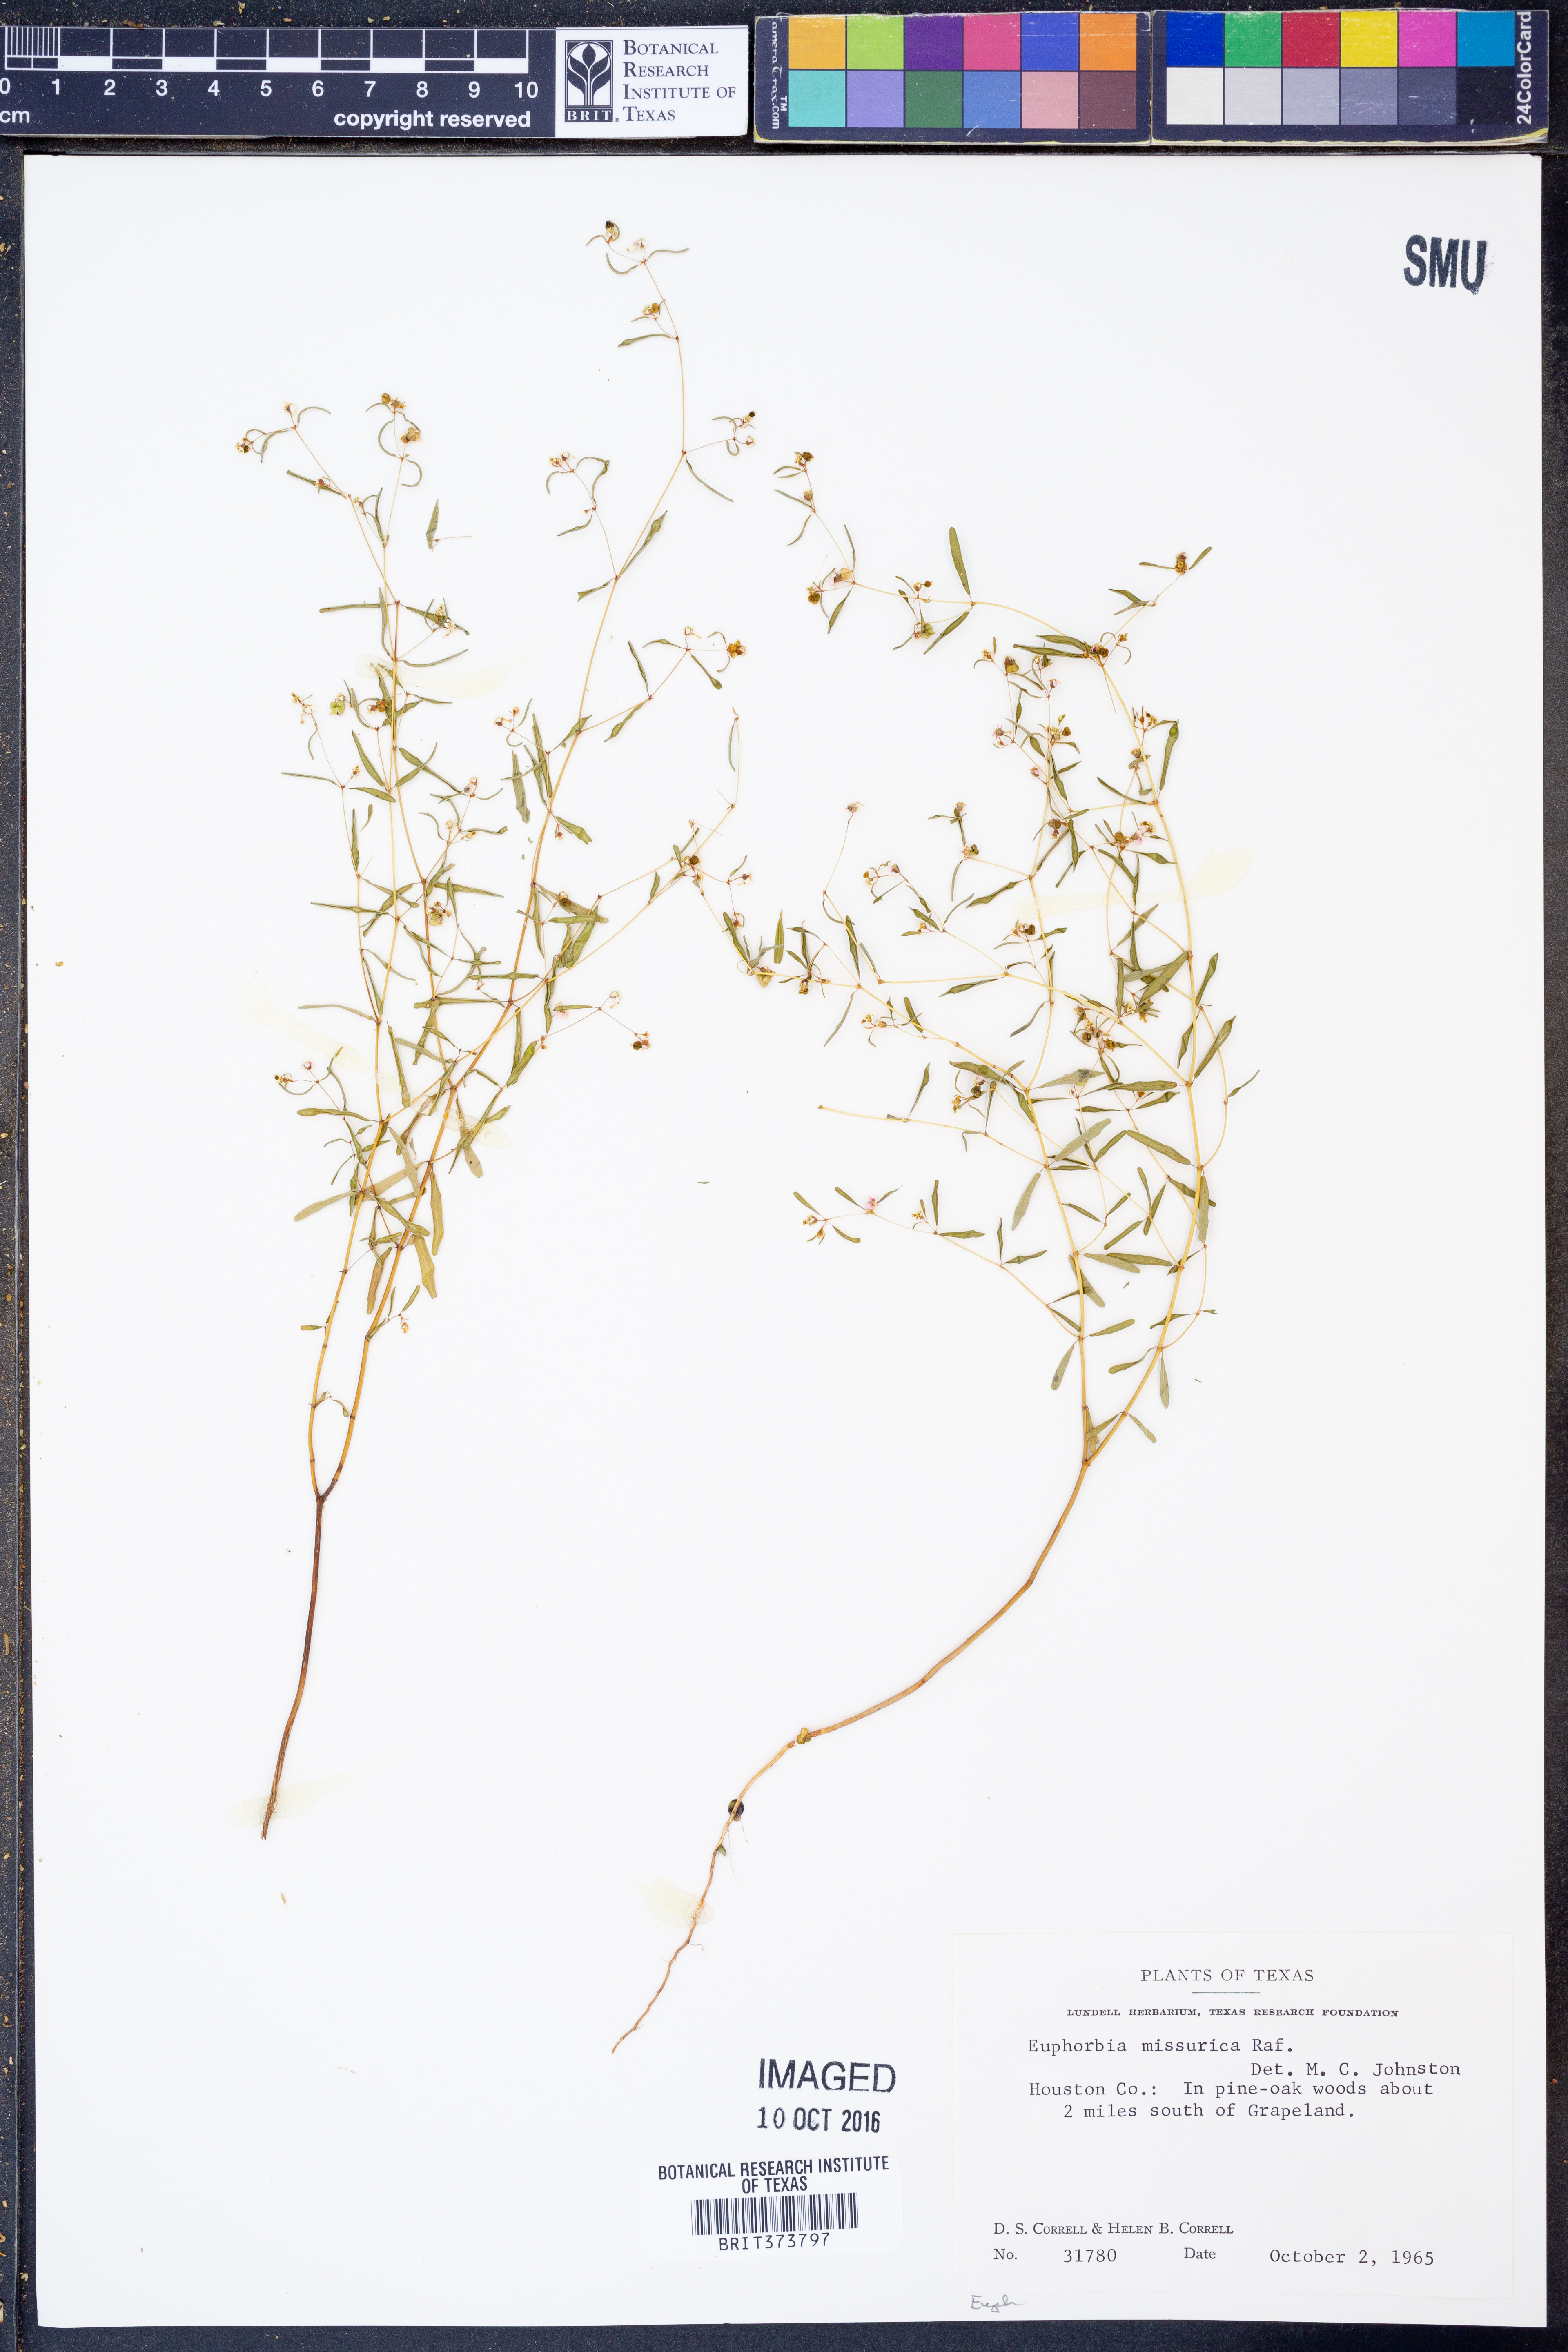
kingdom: Plantae
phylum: Tracheophyta
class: Magnoliopsida
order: Malpighiales
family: Euphorbiaceae
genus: Euphorbia
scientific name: Euphorbia missurica
